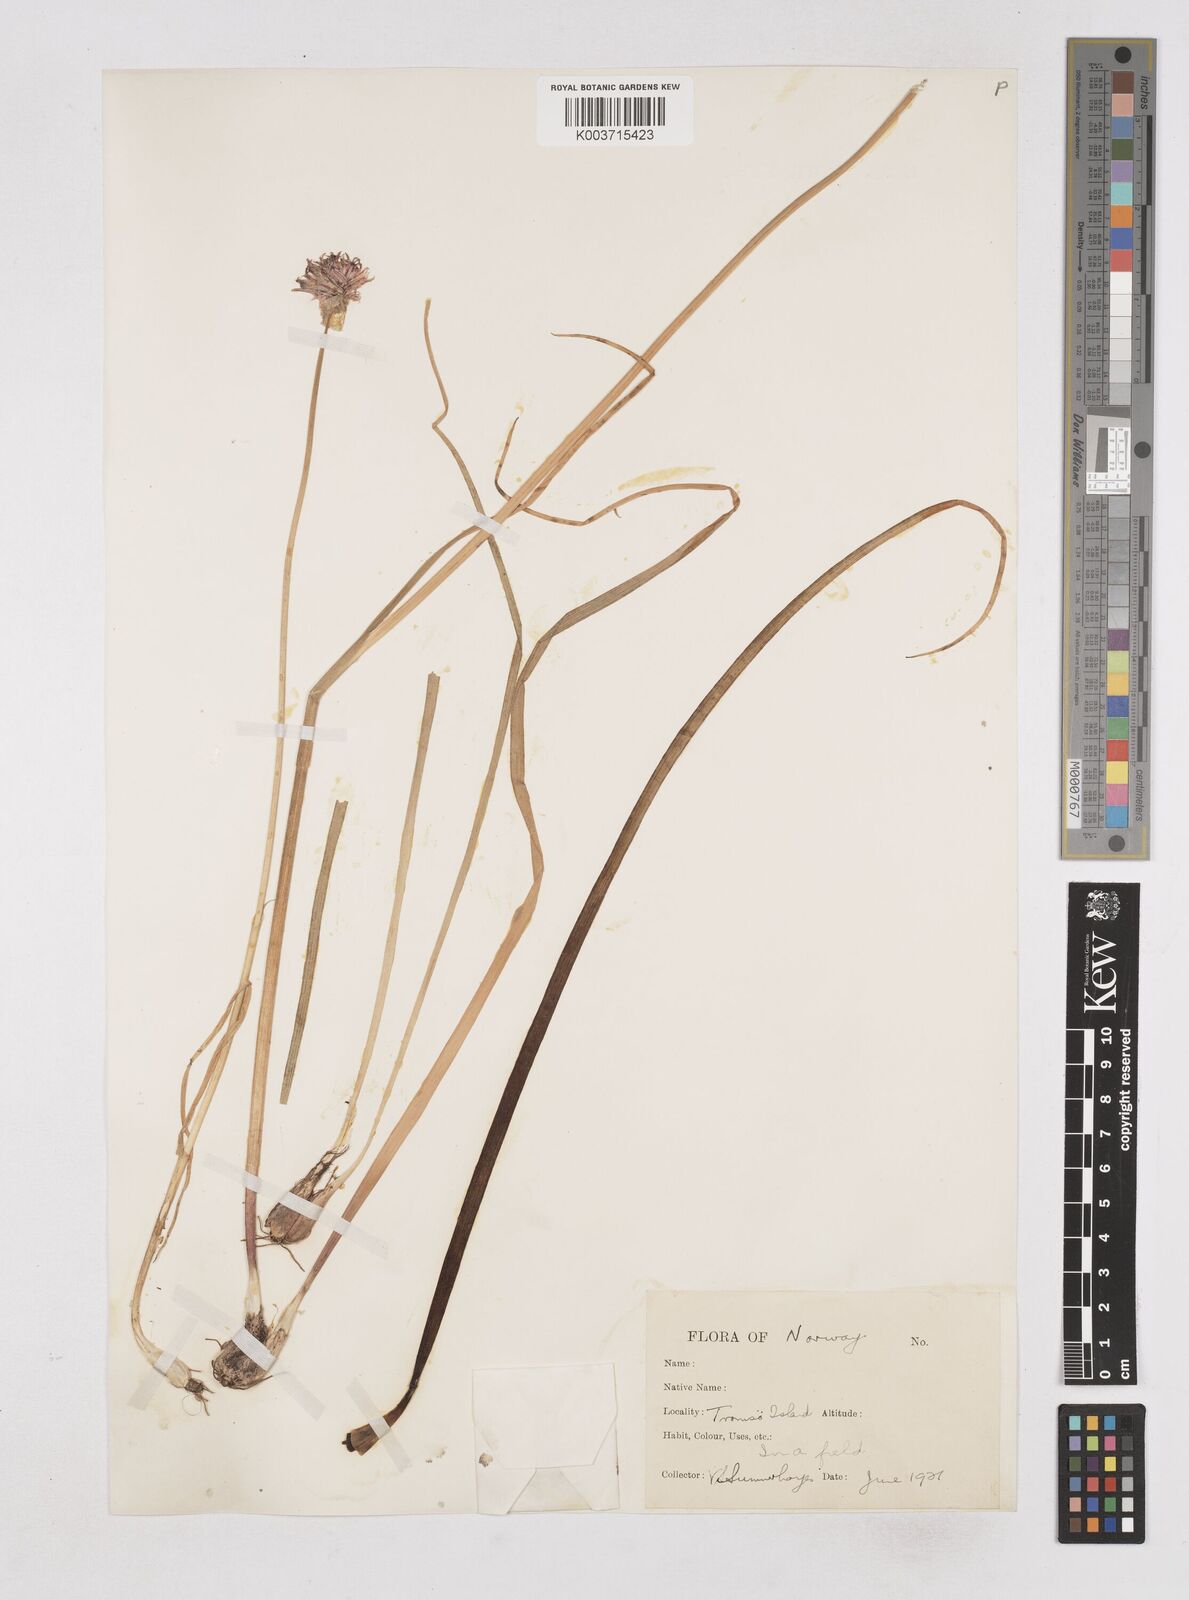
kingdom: Plantae
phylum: Tracheophyta
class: Liliopsida
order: Asparagales
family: Amaryllidaceae
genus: Allium
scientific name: Allium schoenoprasum
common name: Chives
